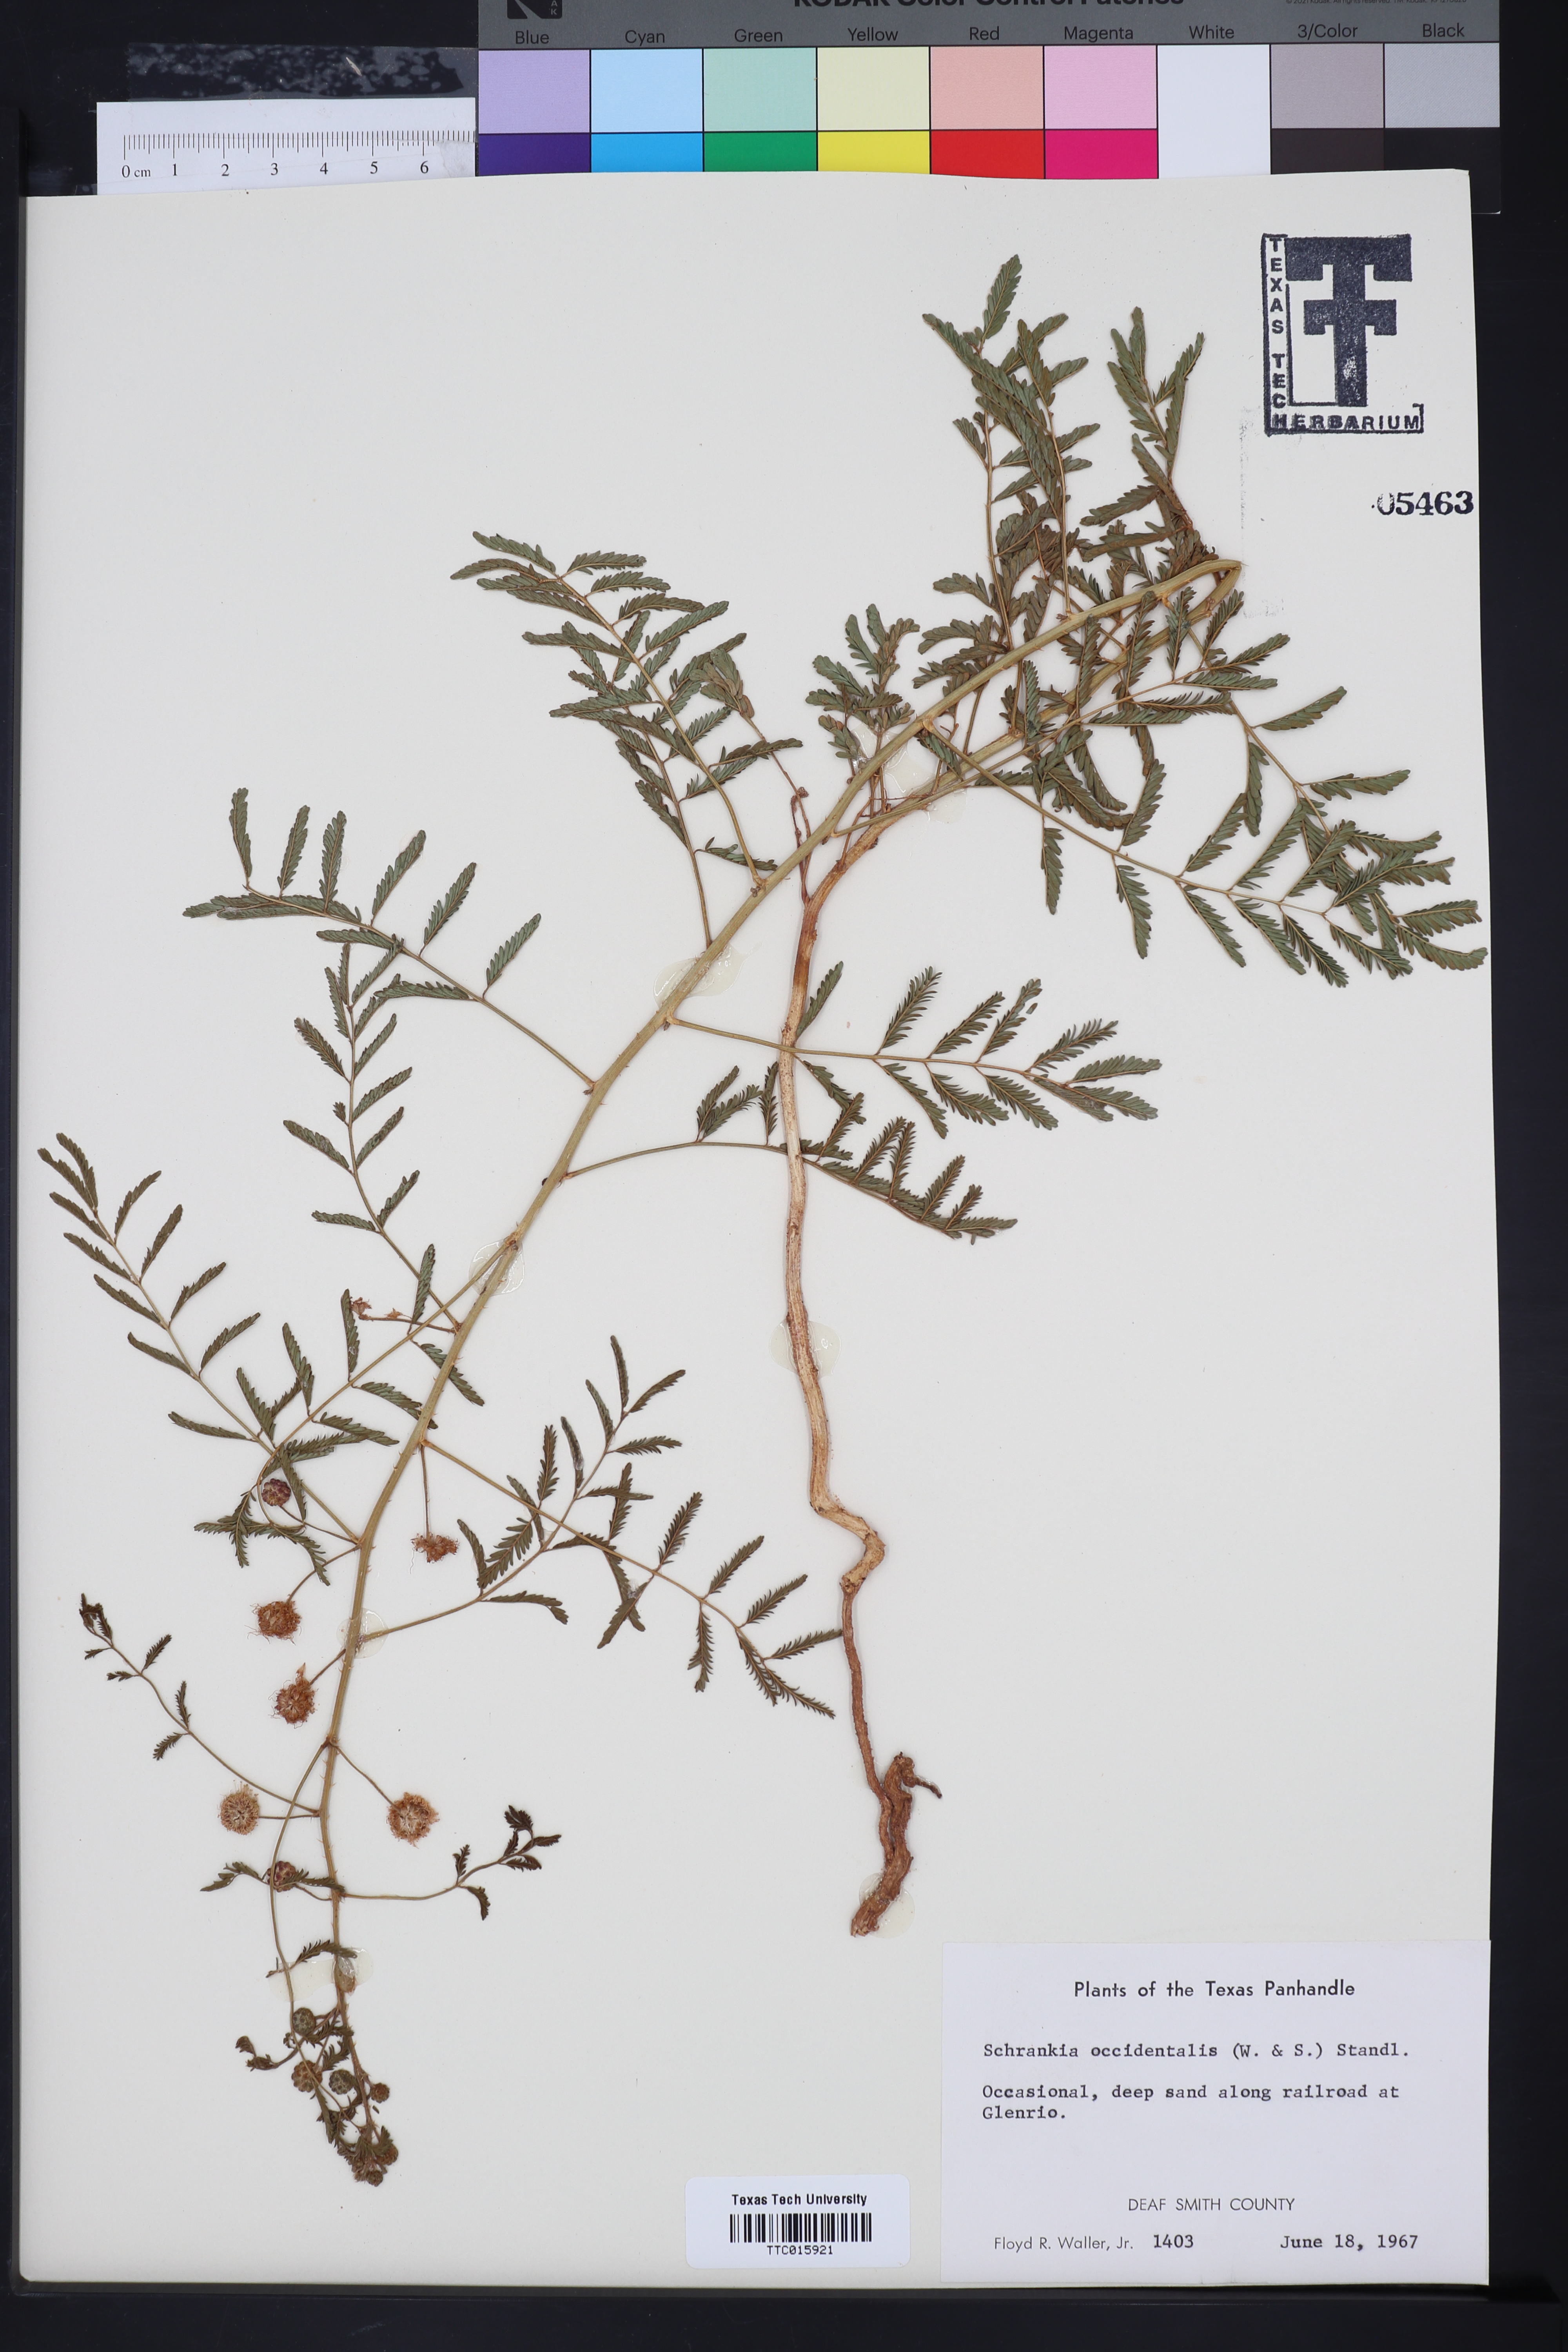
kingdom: Plantae
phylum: Tracheophyta
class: Magnoliopsida
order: Fabales
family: Fabaceae
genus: Mimosa
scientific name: Mimosa quadrivalvis
